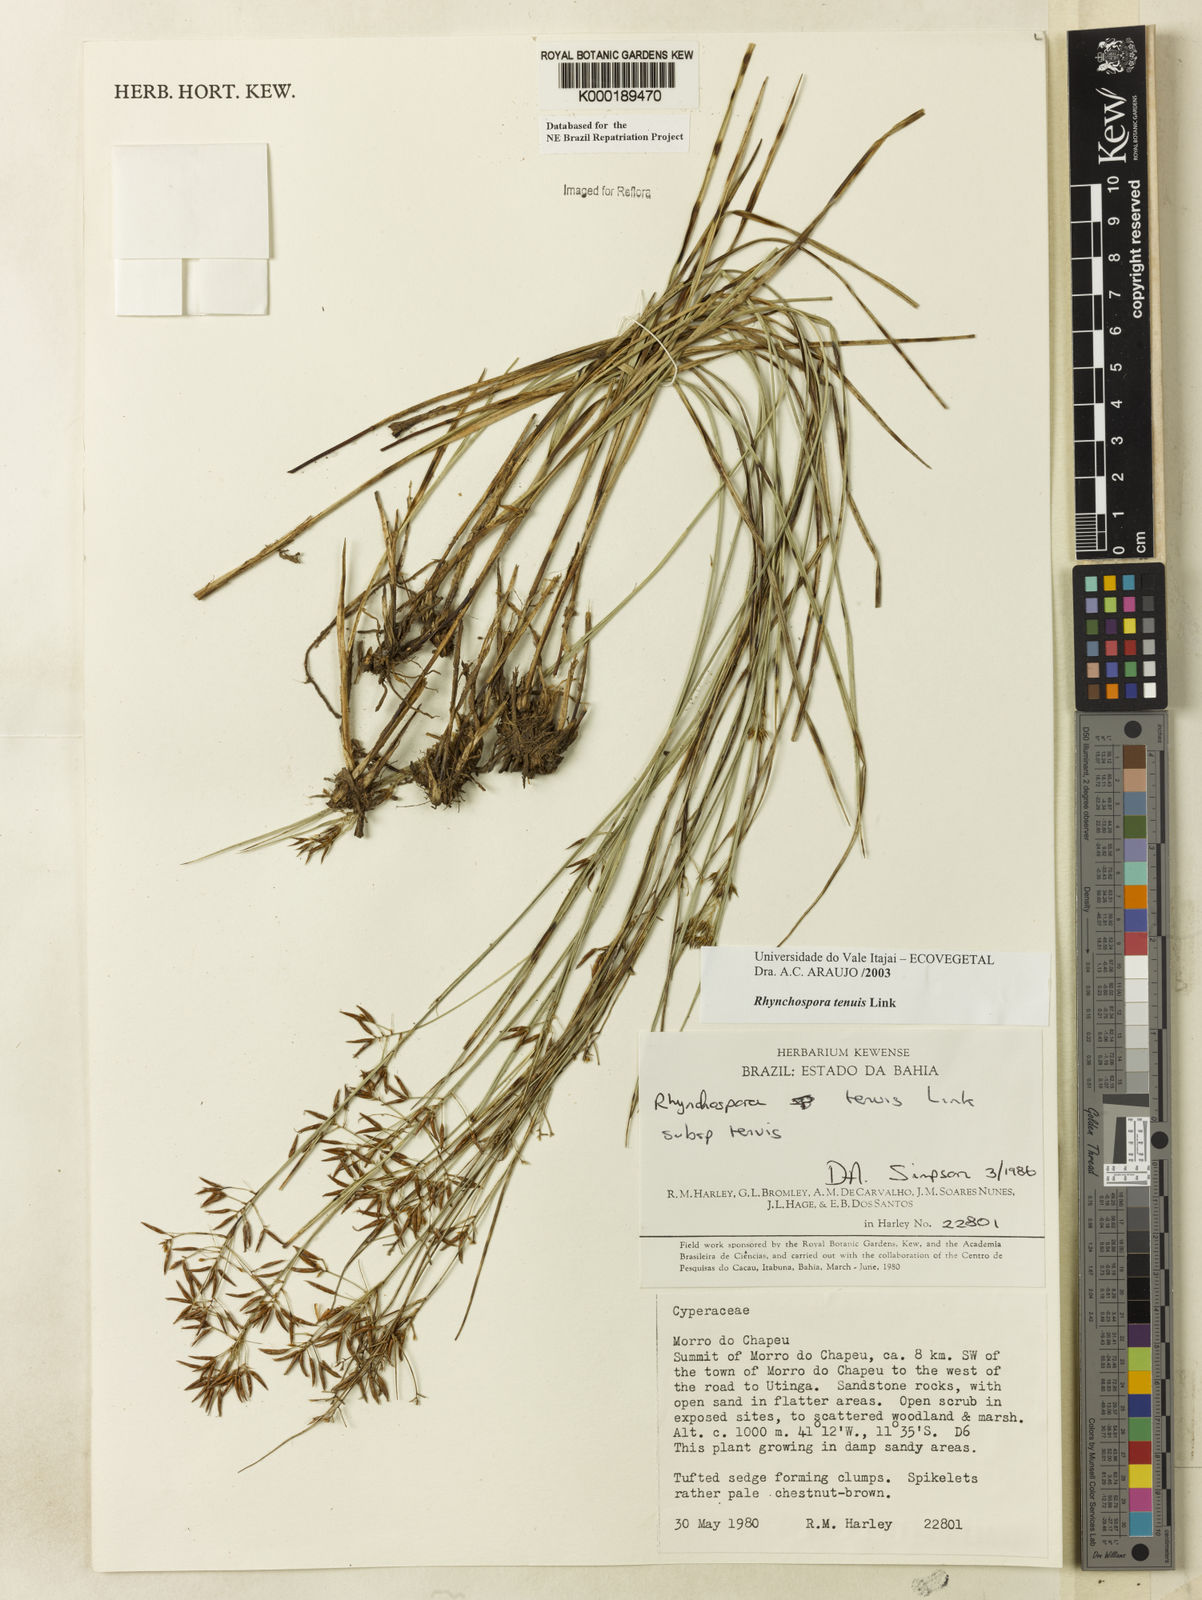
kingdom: Plantae
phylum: Tracheophyta
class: Liliopsida
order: Poales
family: Cyperaceae
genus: Rhynchospora
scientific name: Rhynchospora tenuis
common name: Quill beaksedge
